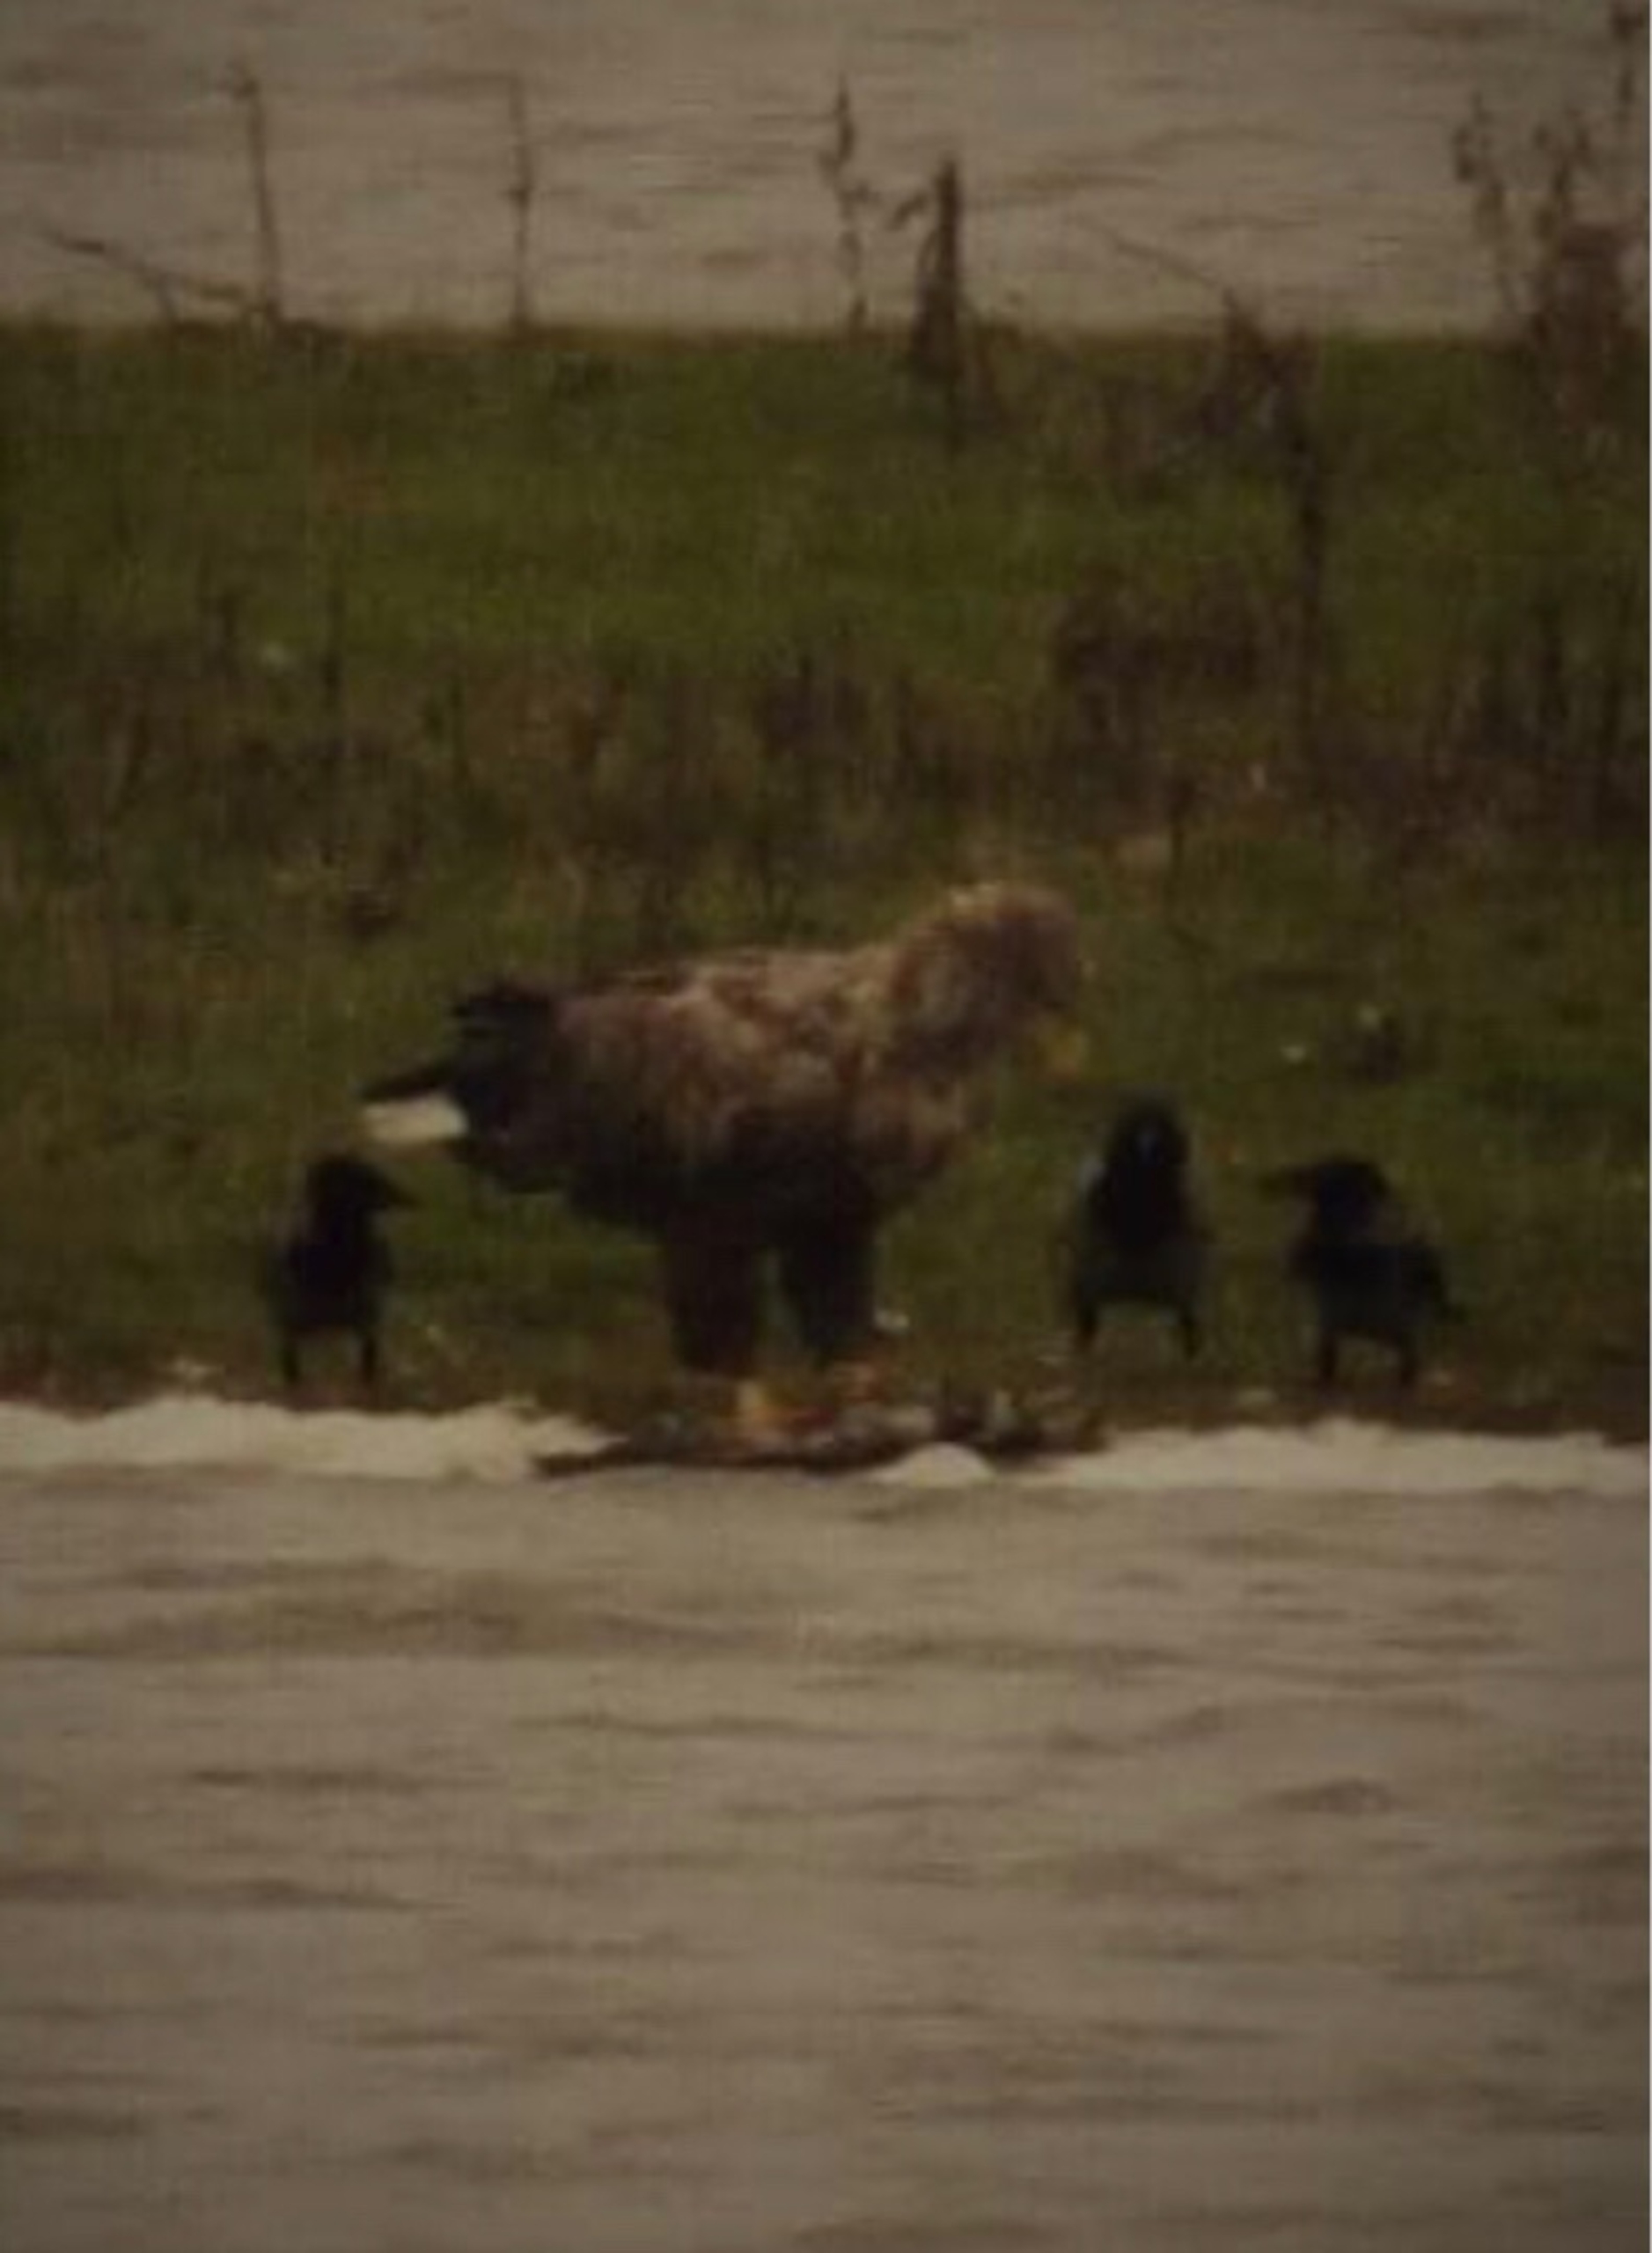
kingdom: Animalia
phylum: Chordata
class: Aves
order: Accipitriformes
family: Accipitridae
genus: Haliaeetus
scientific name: Haliaeetus albicilla
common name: Havørn
